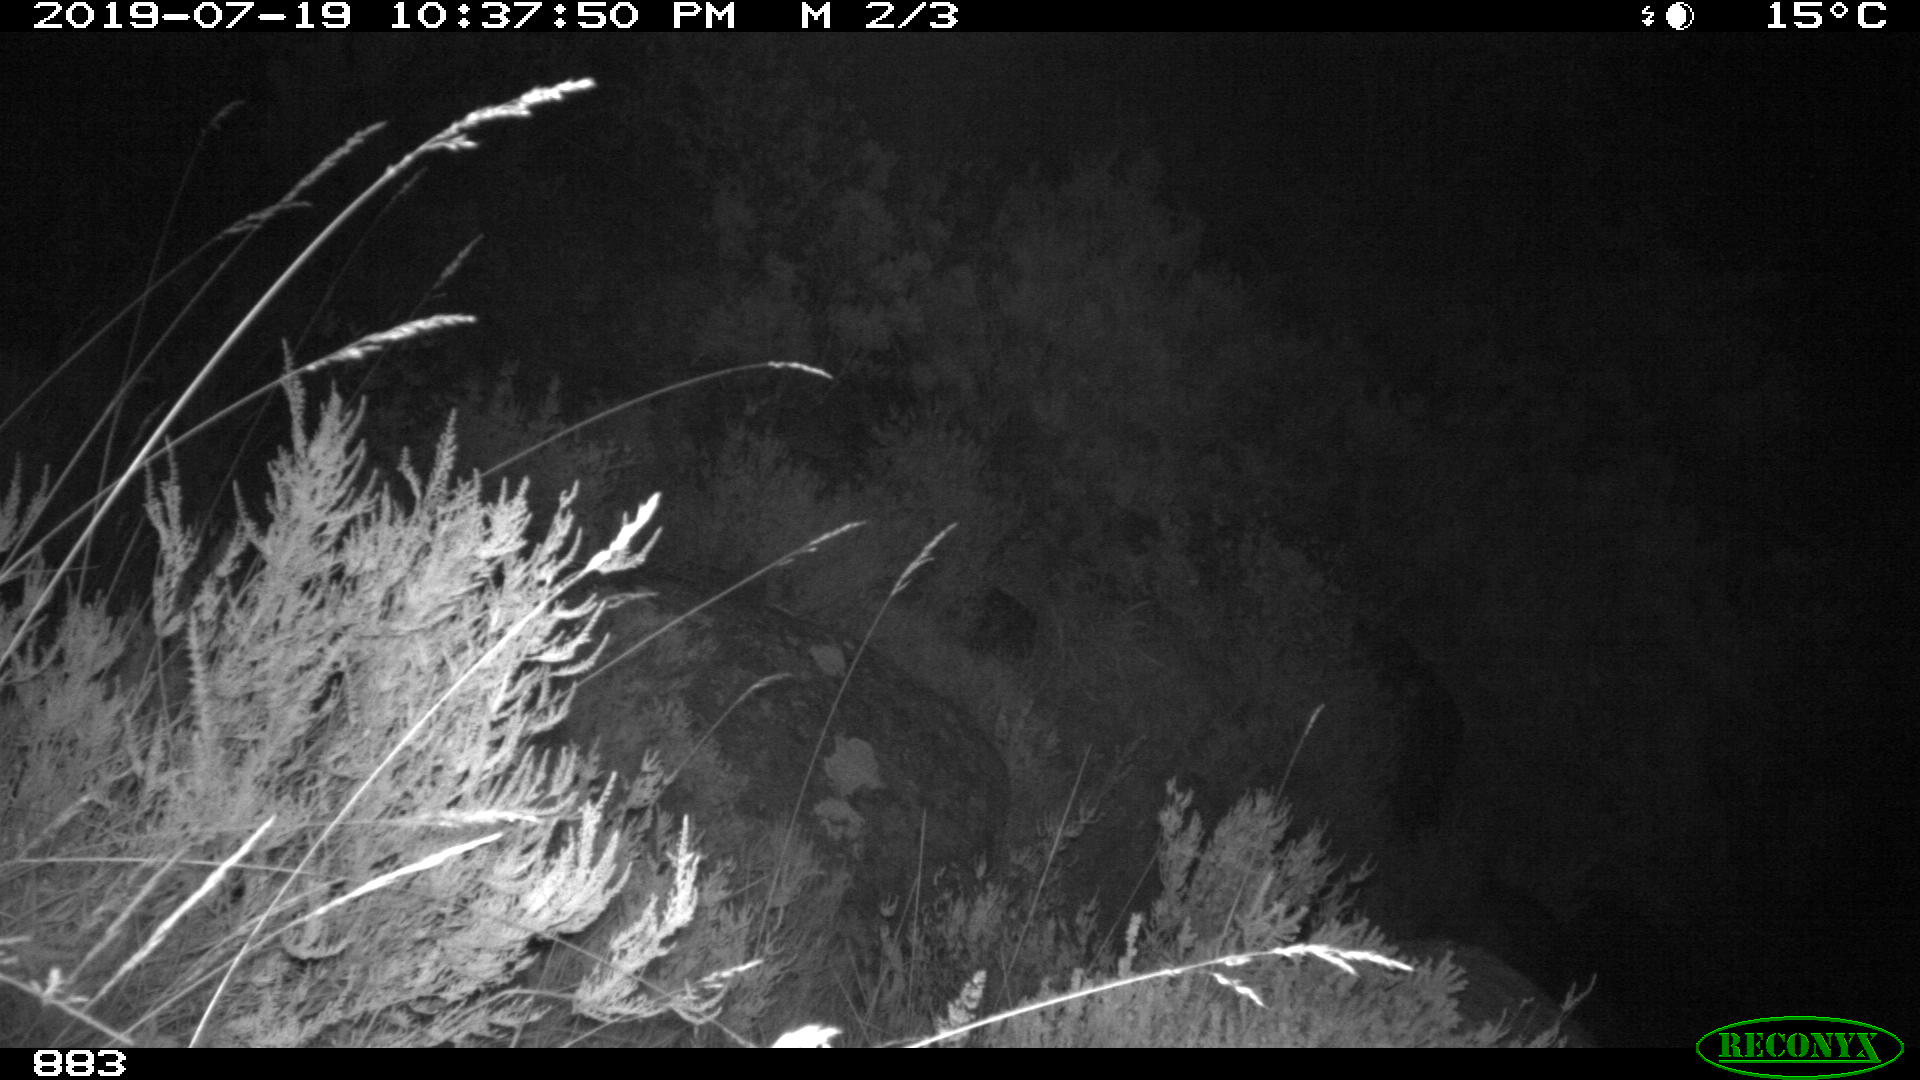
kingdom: Animalia
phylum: Chordata
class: Mammalia
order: Carnivora
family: Canidae
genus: Canis
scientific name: Canis lupus
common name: Gray wolf
